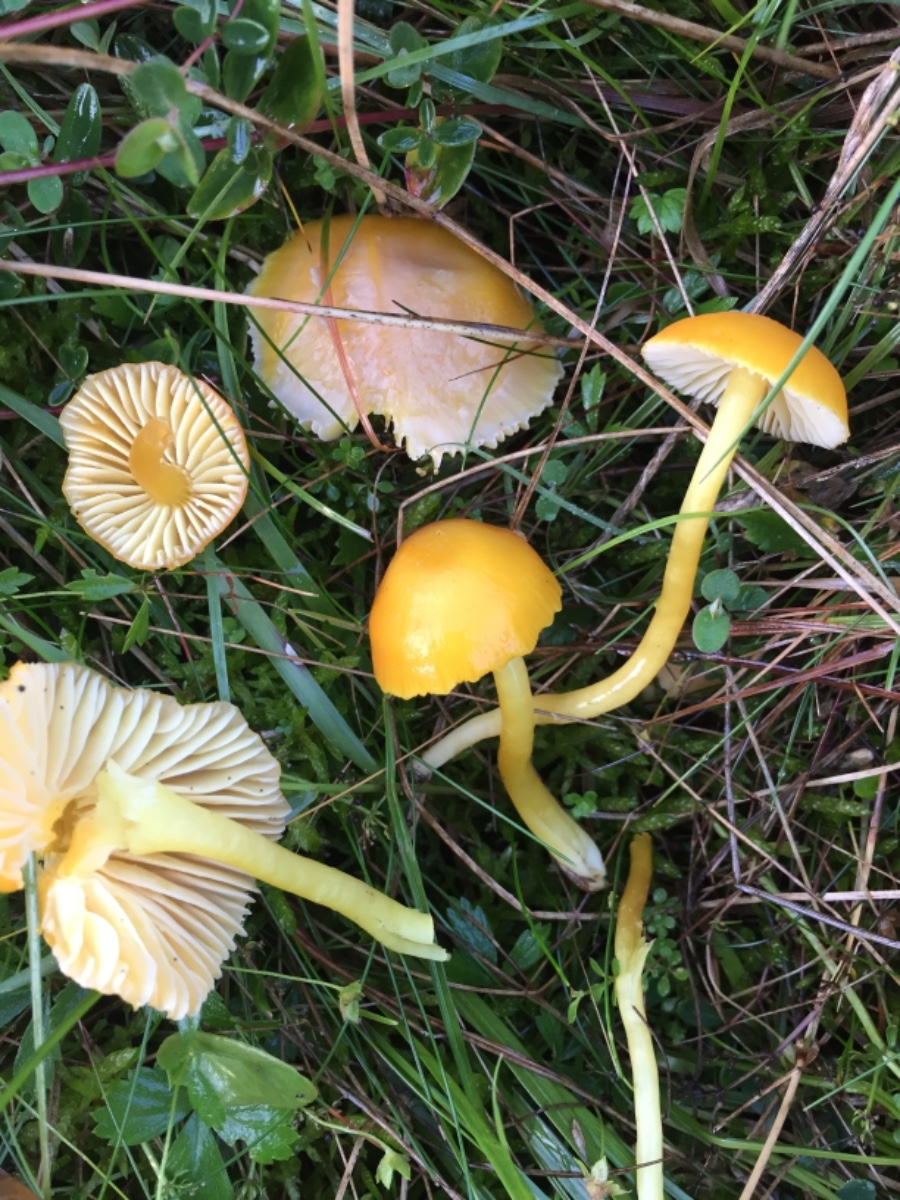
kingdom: Fungi
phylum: Basidiomycota
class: Agaricomycetes
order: Agaricales
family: Hygrophoraceae
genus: Hygrocybe
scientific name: Hygrocybe reidii
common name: honning-vokshat
